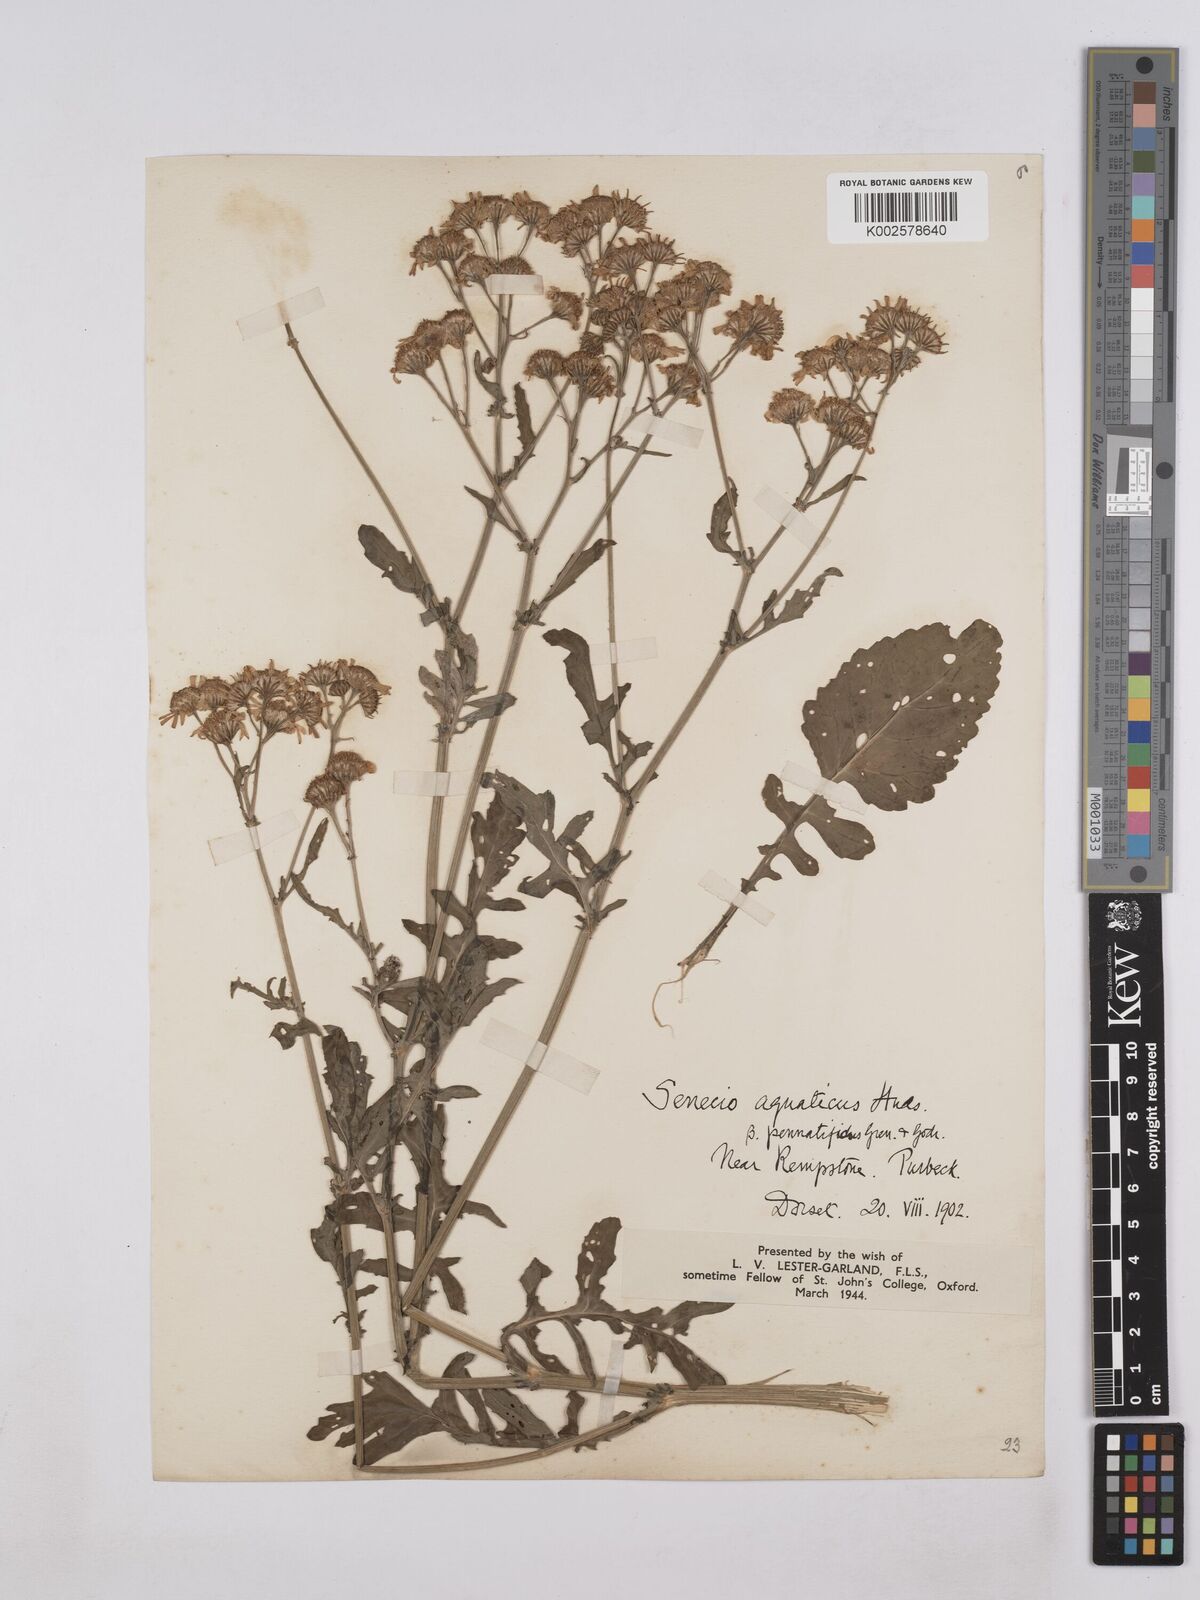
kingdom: Plantae
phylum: Tracheophyta
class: Magnoliopsida
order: Asterales
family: Asteraceae
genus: Jacobaea
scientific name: Jacobaea aquatica
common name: Water ragwort
